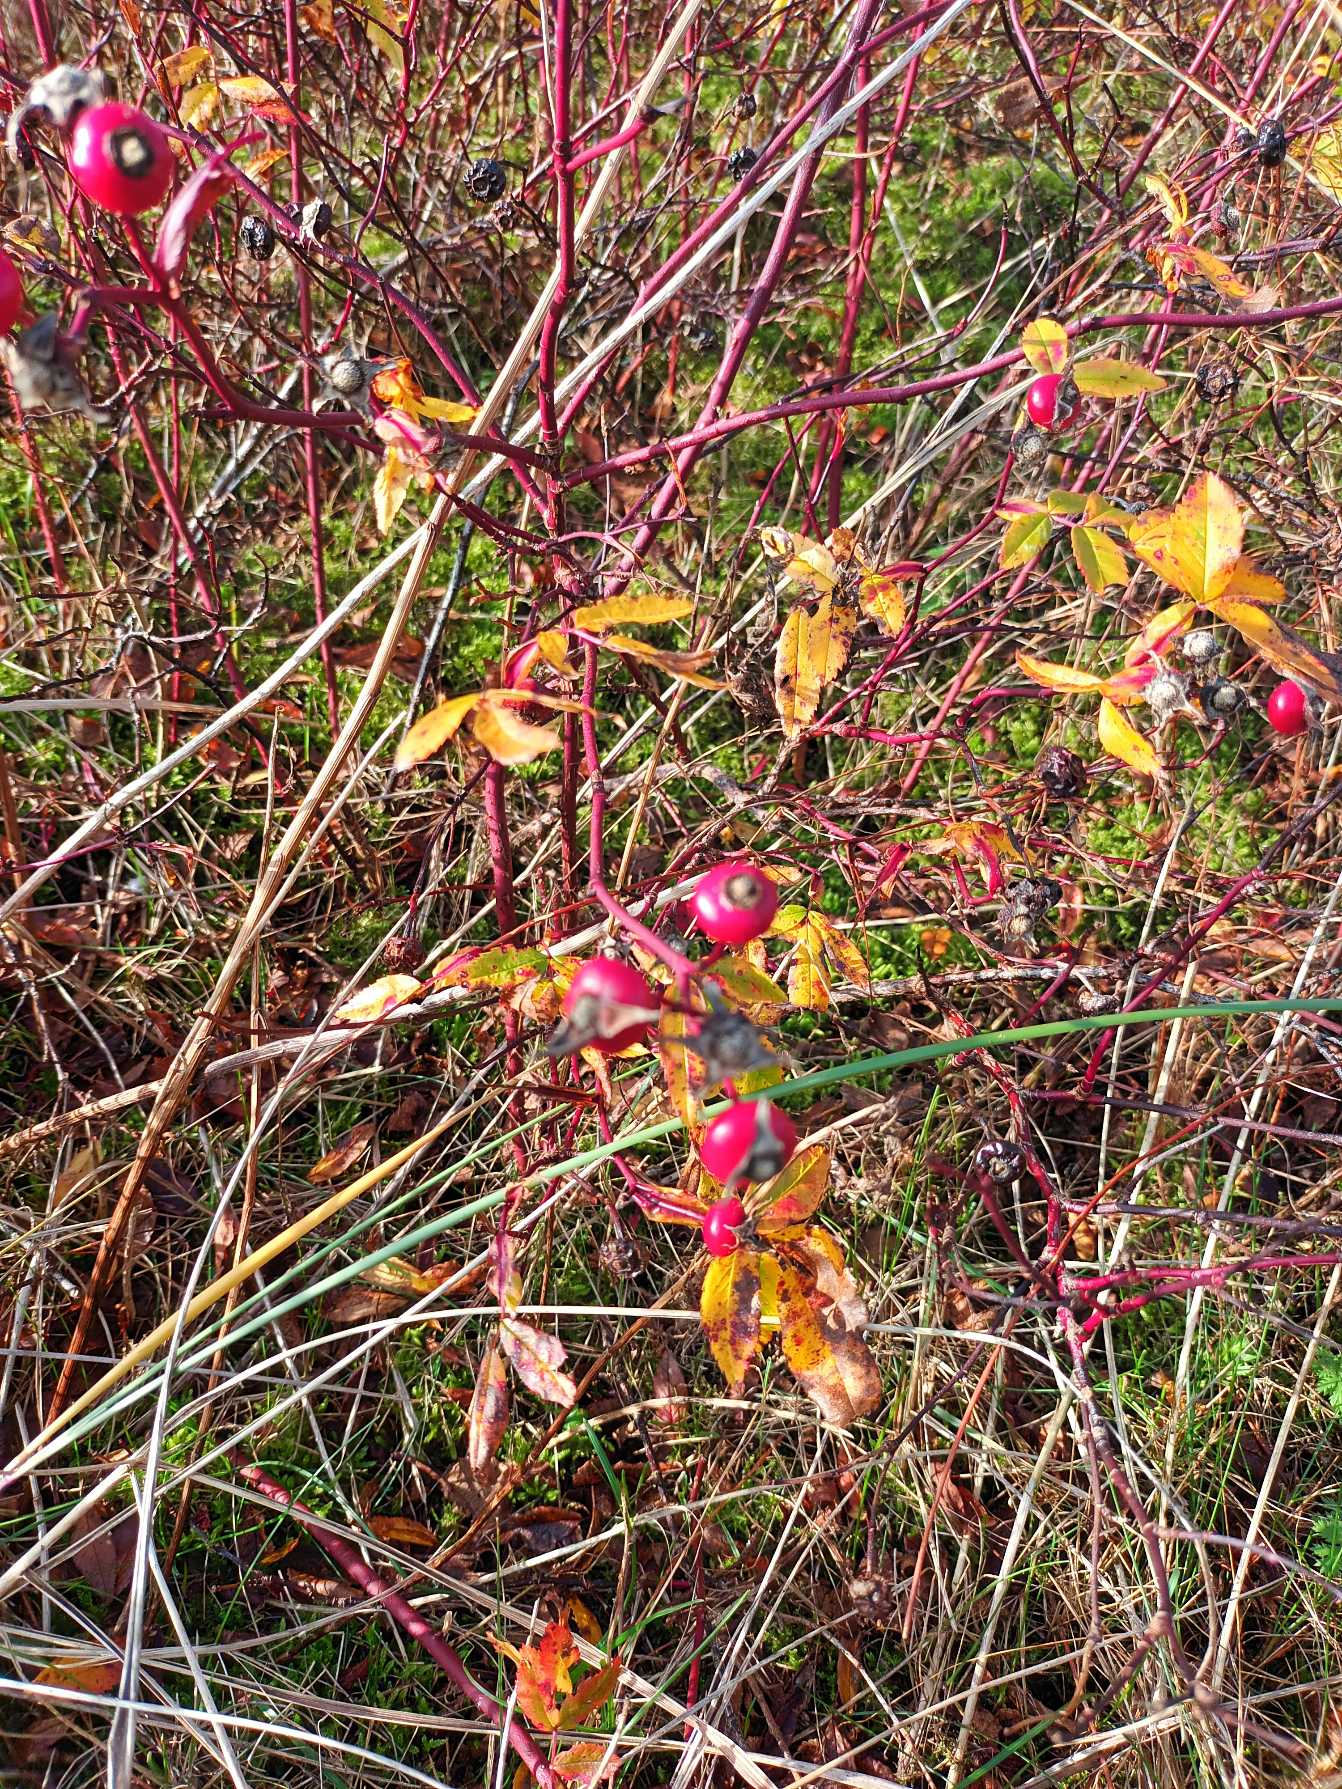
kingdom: Plantae
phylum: Tracheophyta
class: Magnoliopsida
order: Rosales
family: Rosaceae
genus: Rosa
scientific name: Rosa carolina
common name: Glansbladet rose
